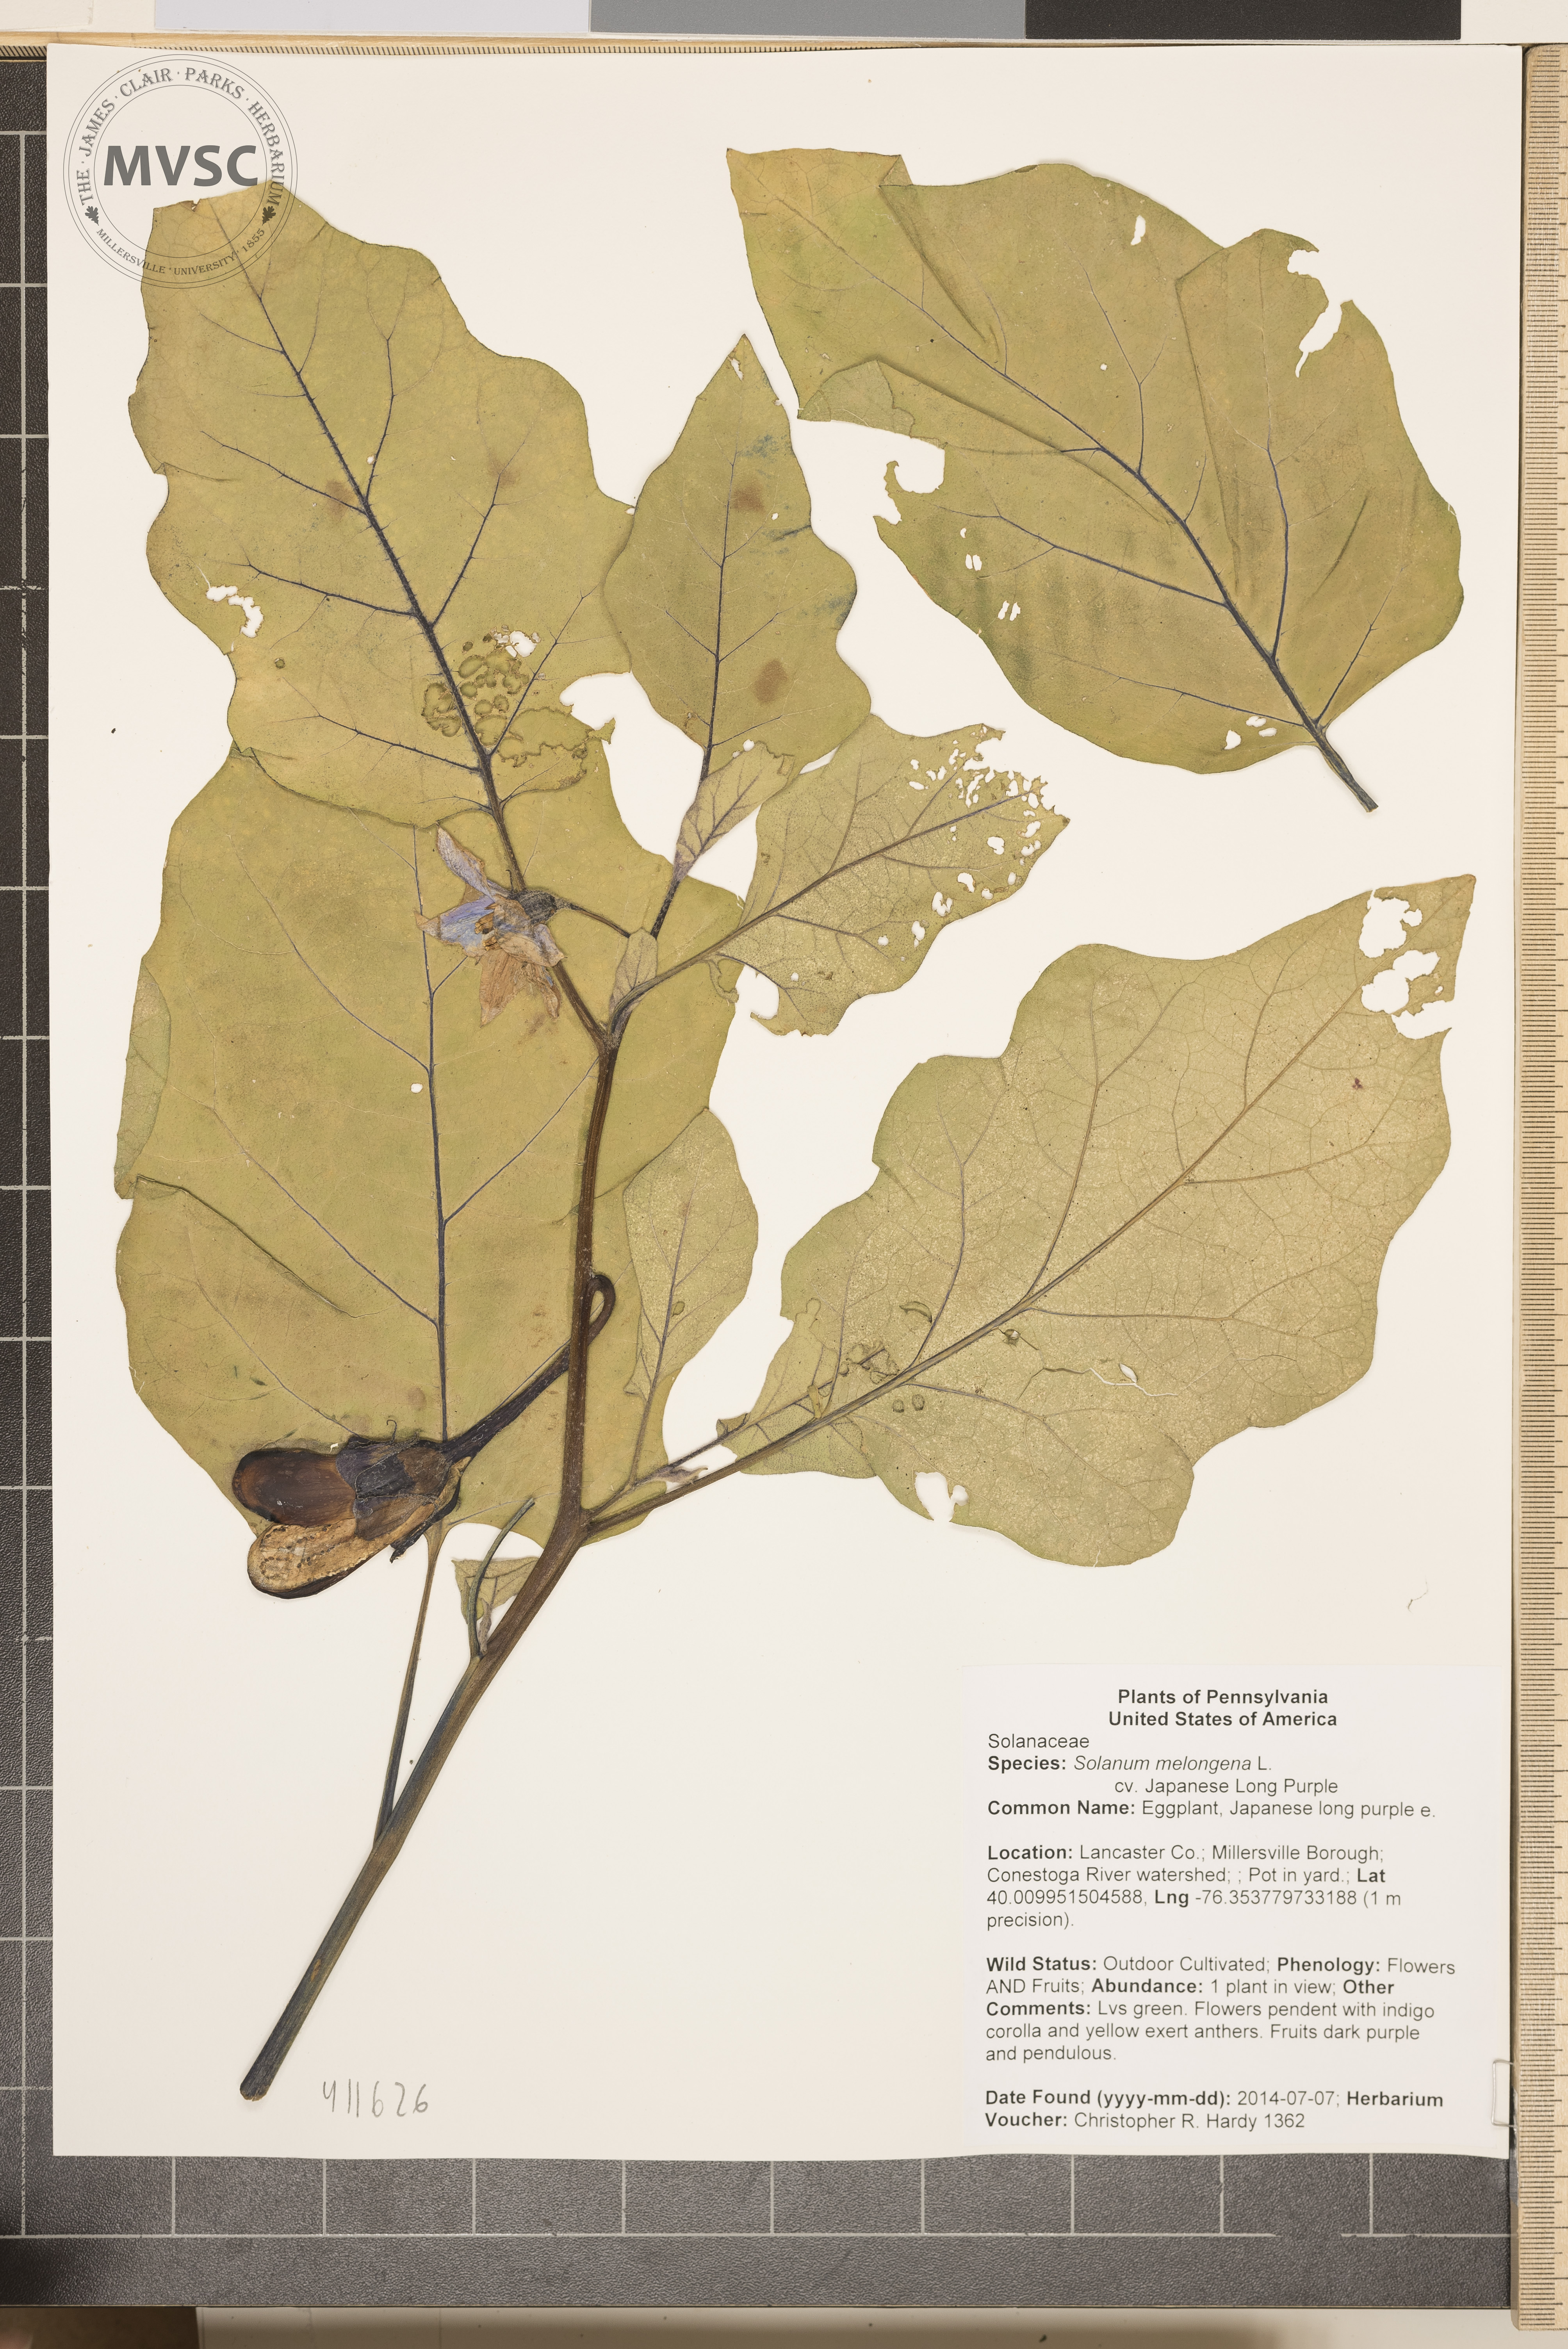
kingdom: Plantae
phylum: Tracheophyta
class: Magnoliopsida
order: Solanales
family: Solanaceae
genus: Solanum
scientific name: Solanum melongena
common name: Eggplant
